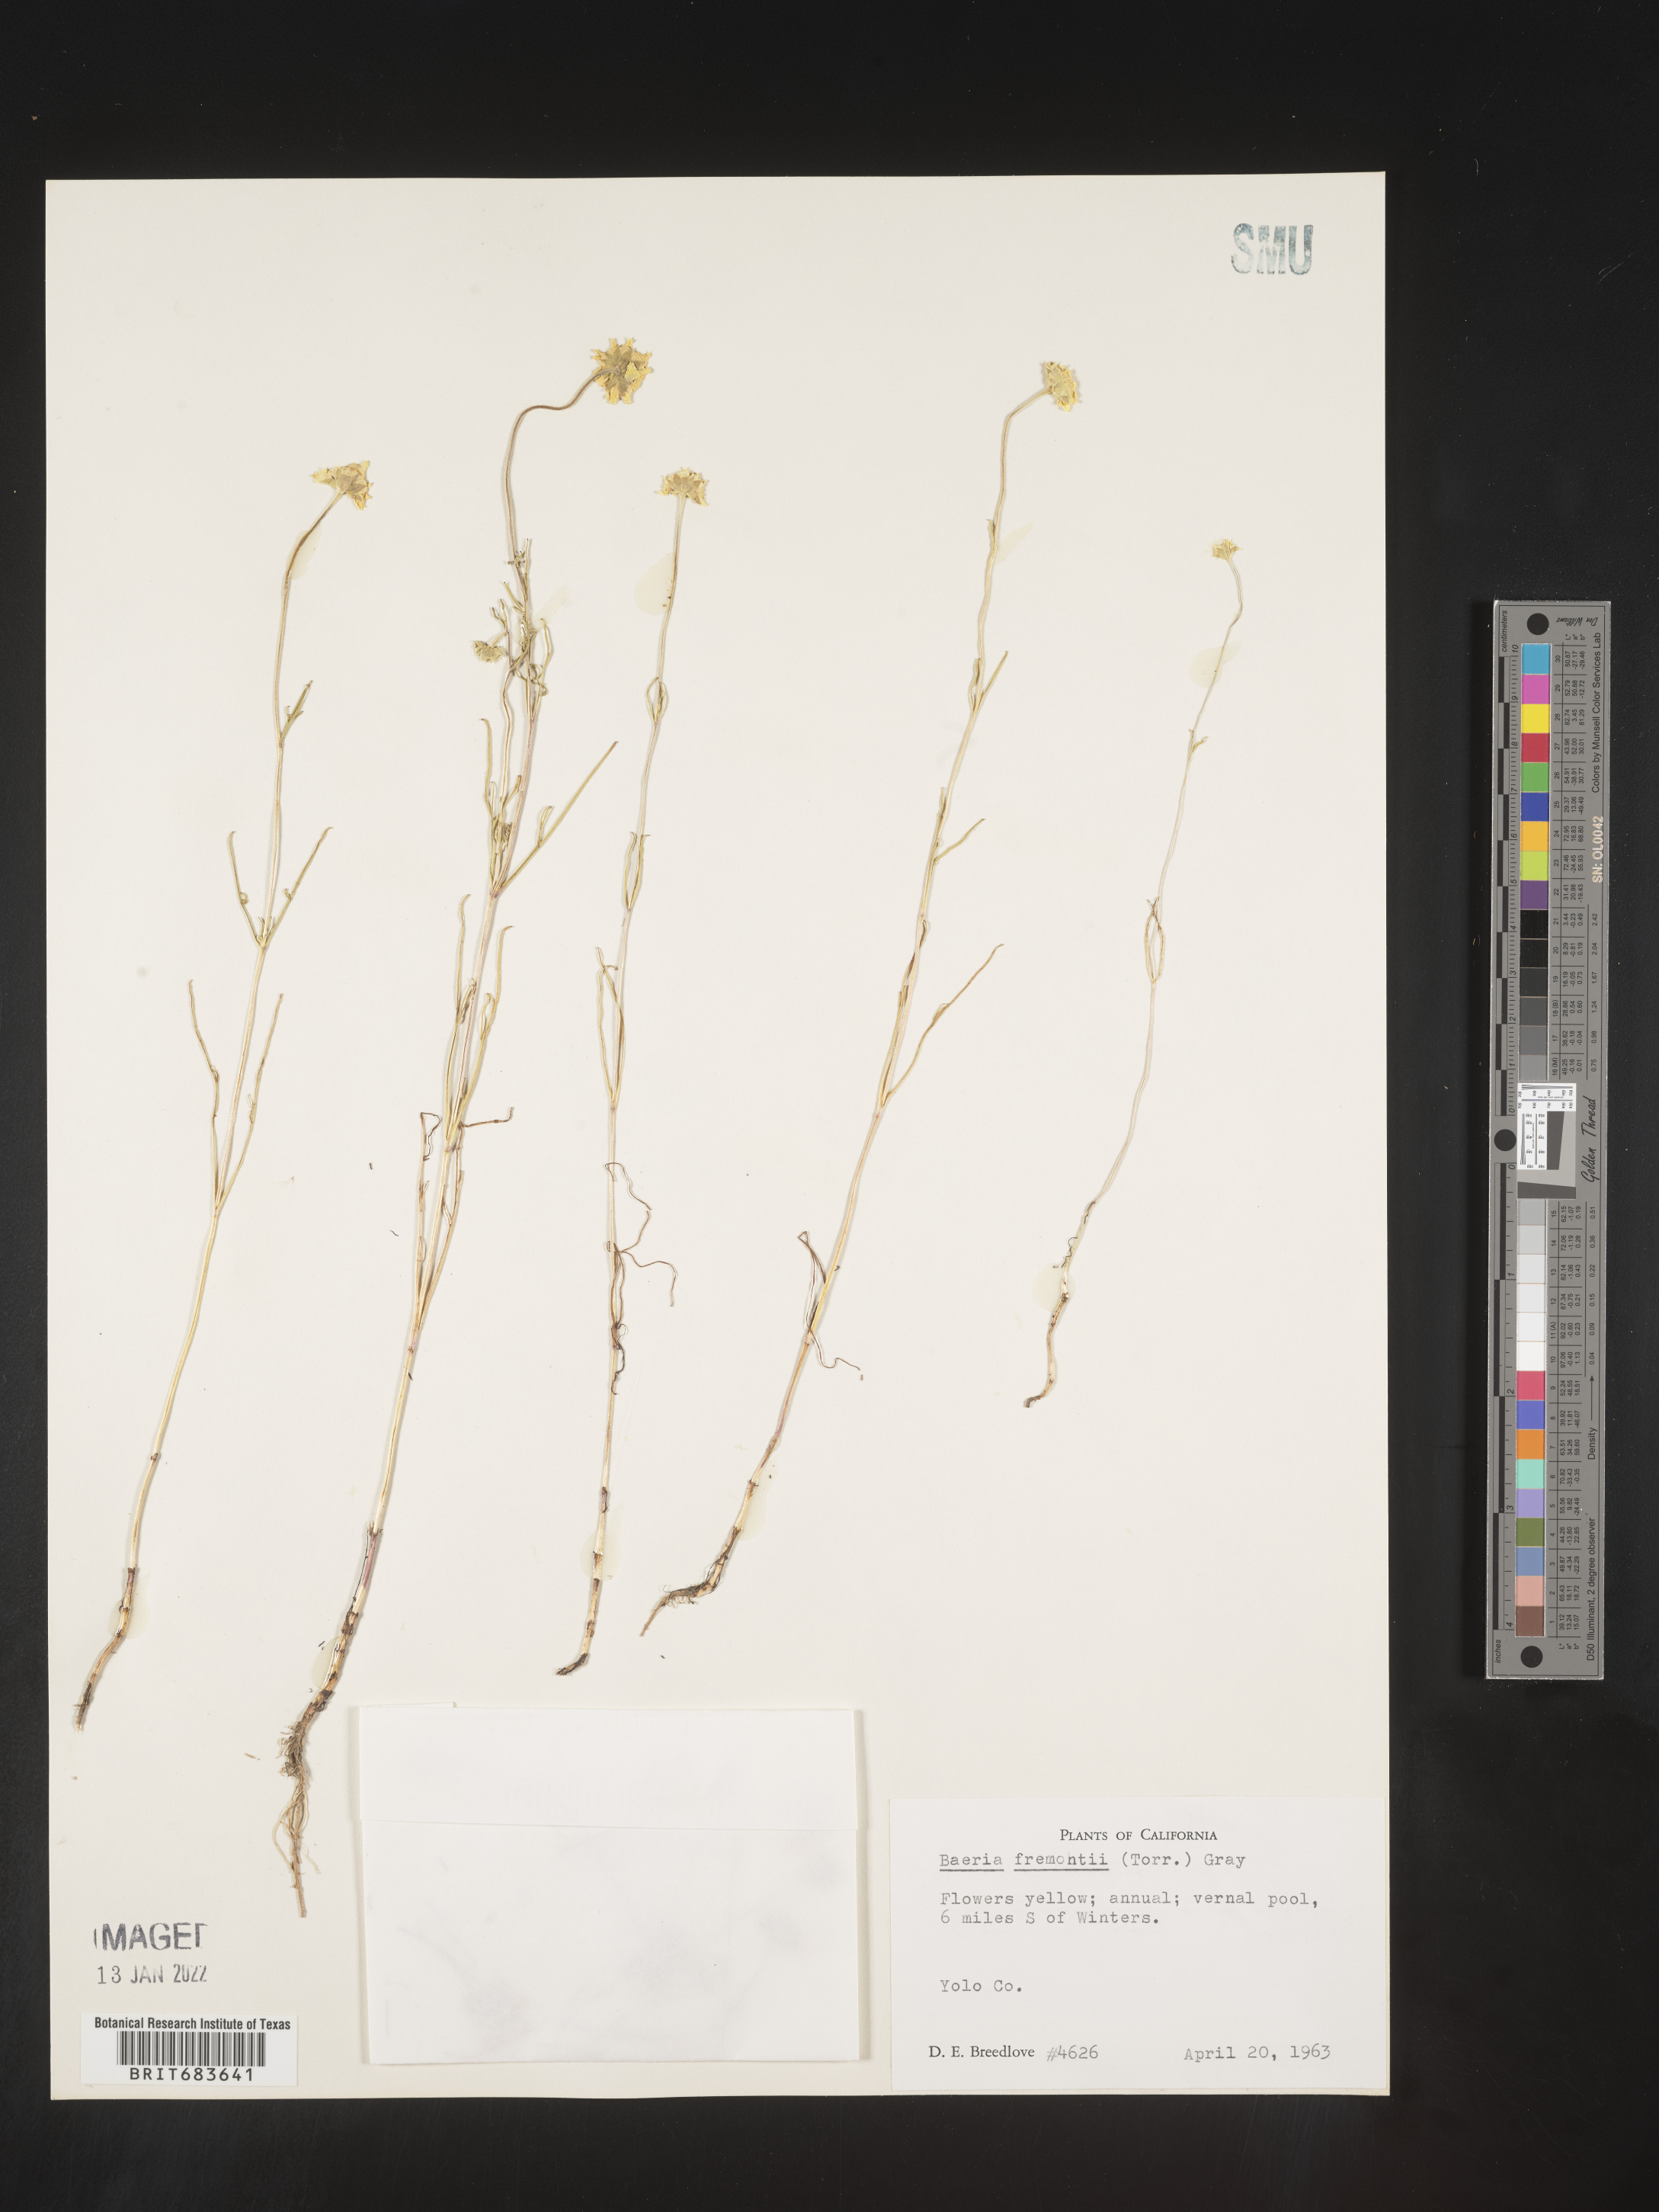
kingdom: Plantae
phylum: Tracheophyta
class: Magnoliopsida
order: Asterales
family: Asteraceae
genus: Lasthenia
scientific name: Lasthenia
